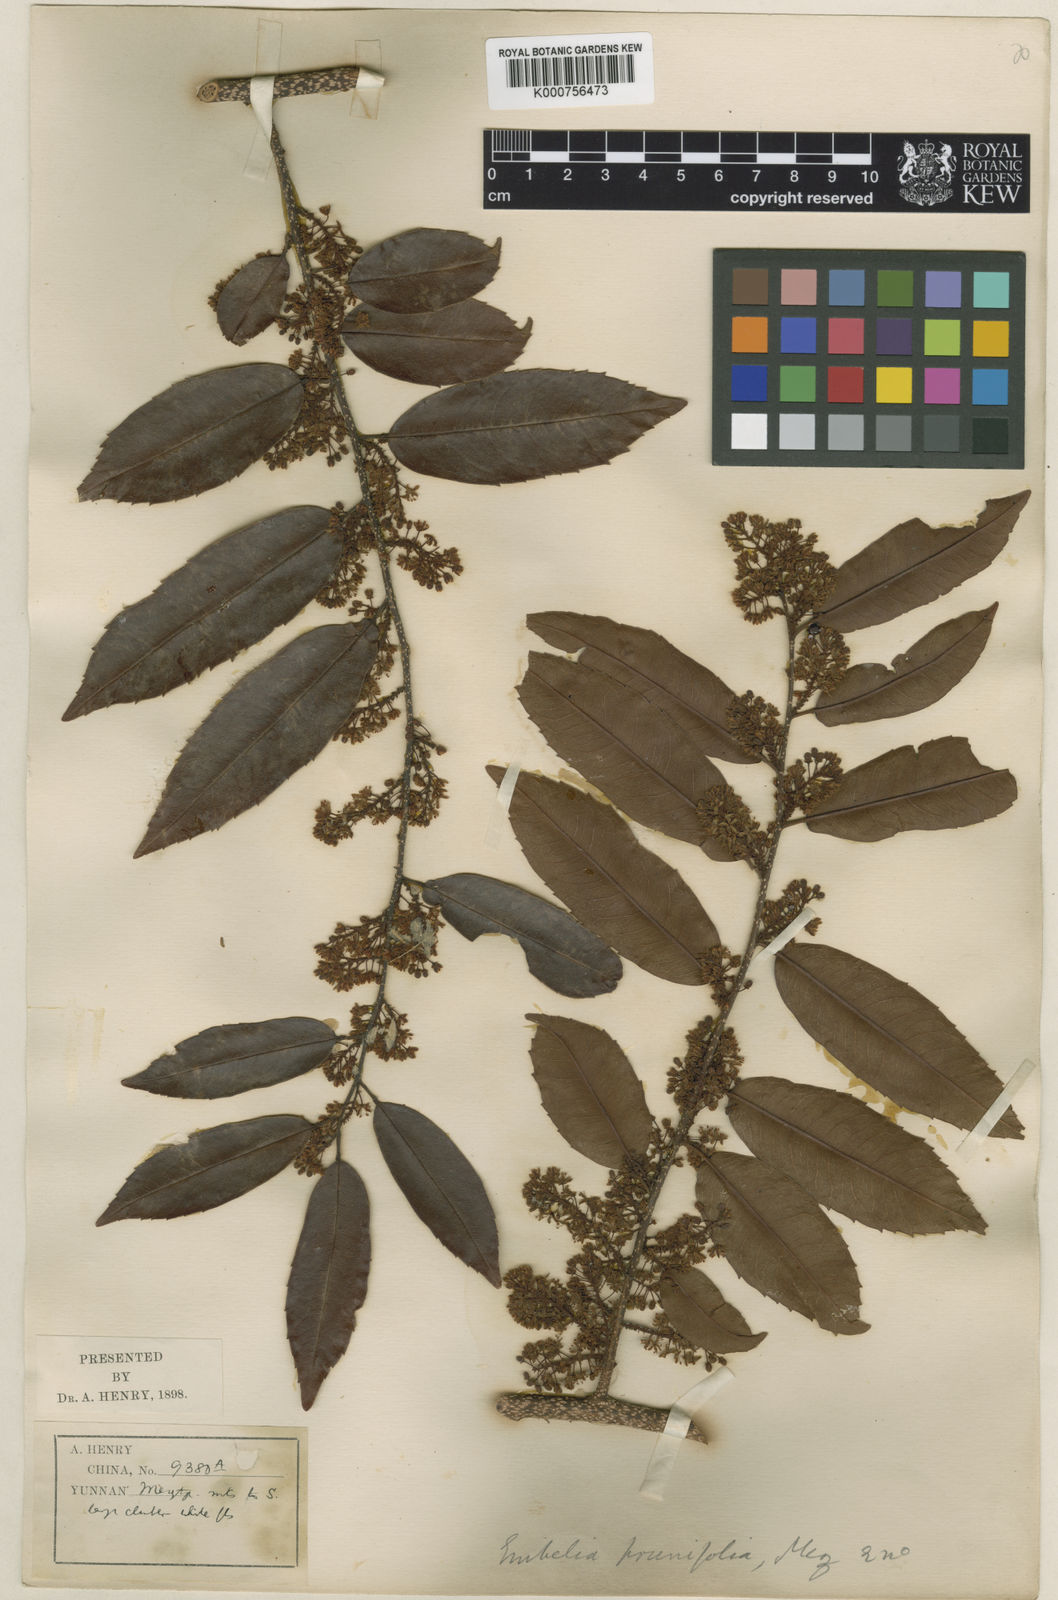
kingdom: Plantae
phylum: Tracheophyta
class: Magnoliopsida
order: Ericales
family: Primulaceae
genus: Embelia
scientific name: Embelia
